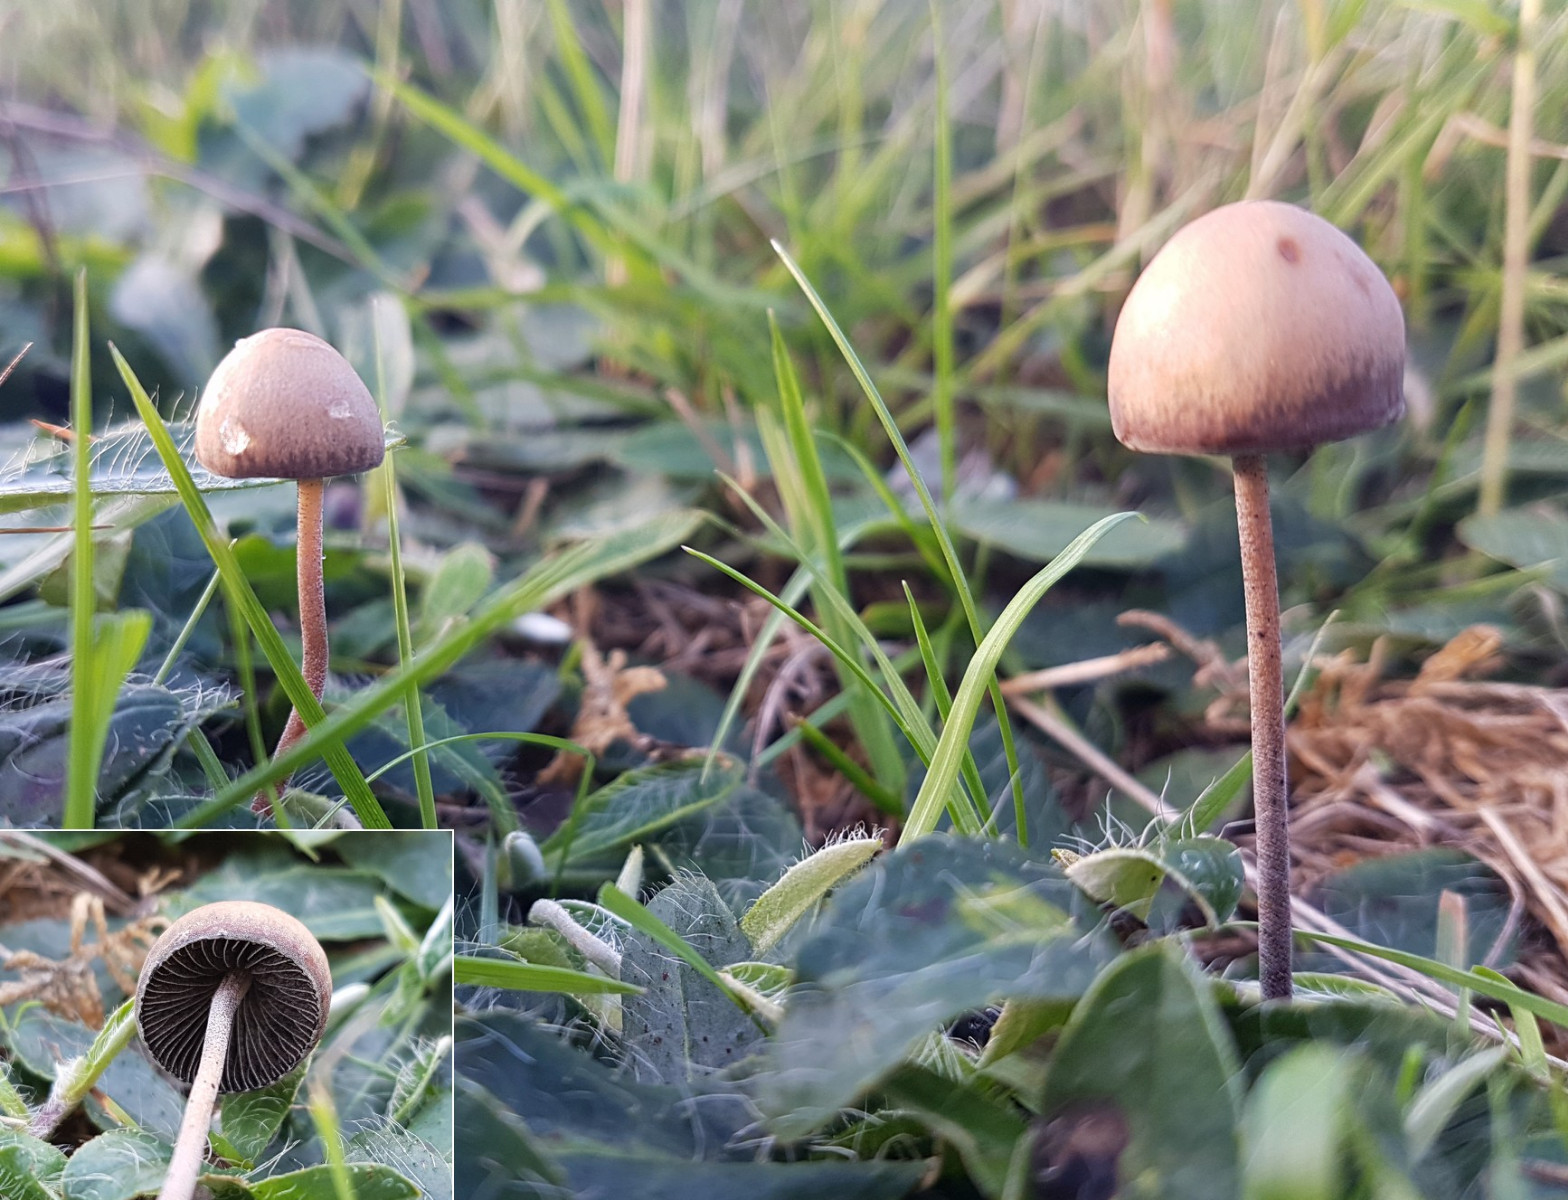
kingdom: Fungi
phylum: Basidiomycota
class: Agaricomycetes
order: Agaricales
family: Bolbitiaceae
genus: Panaeolus
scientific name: Panaeolus papilionaceus
